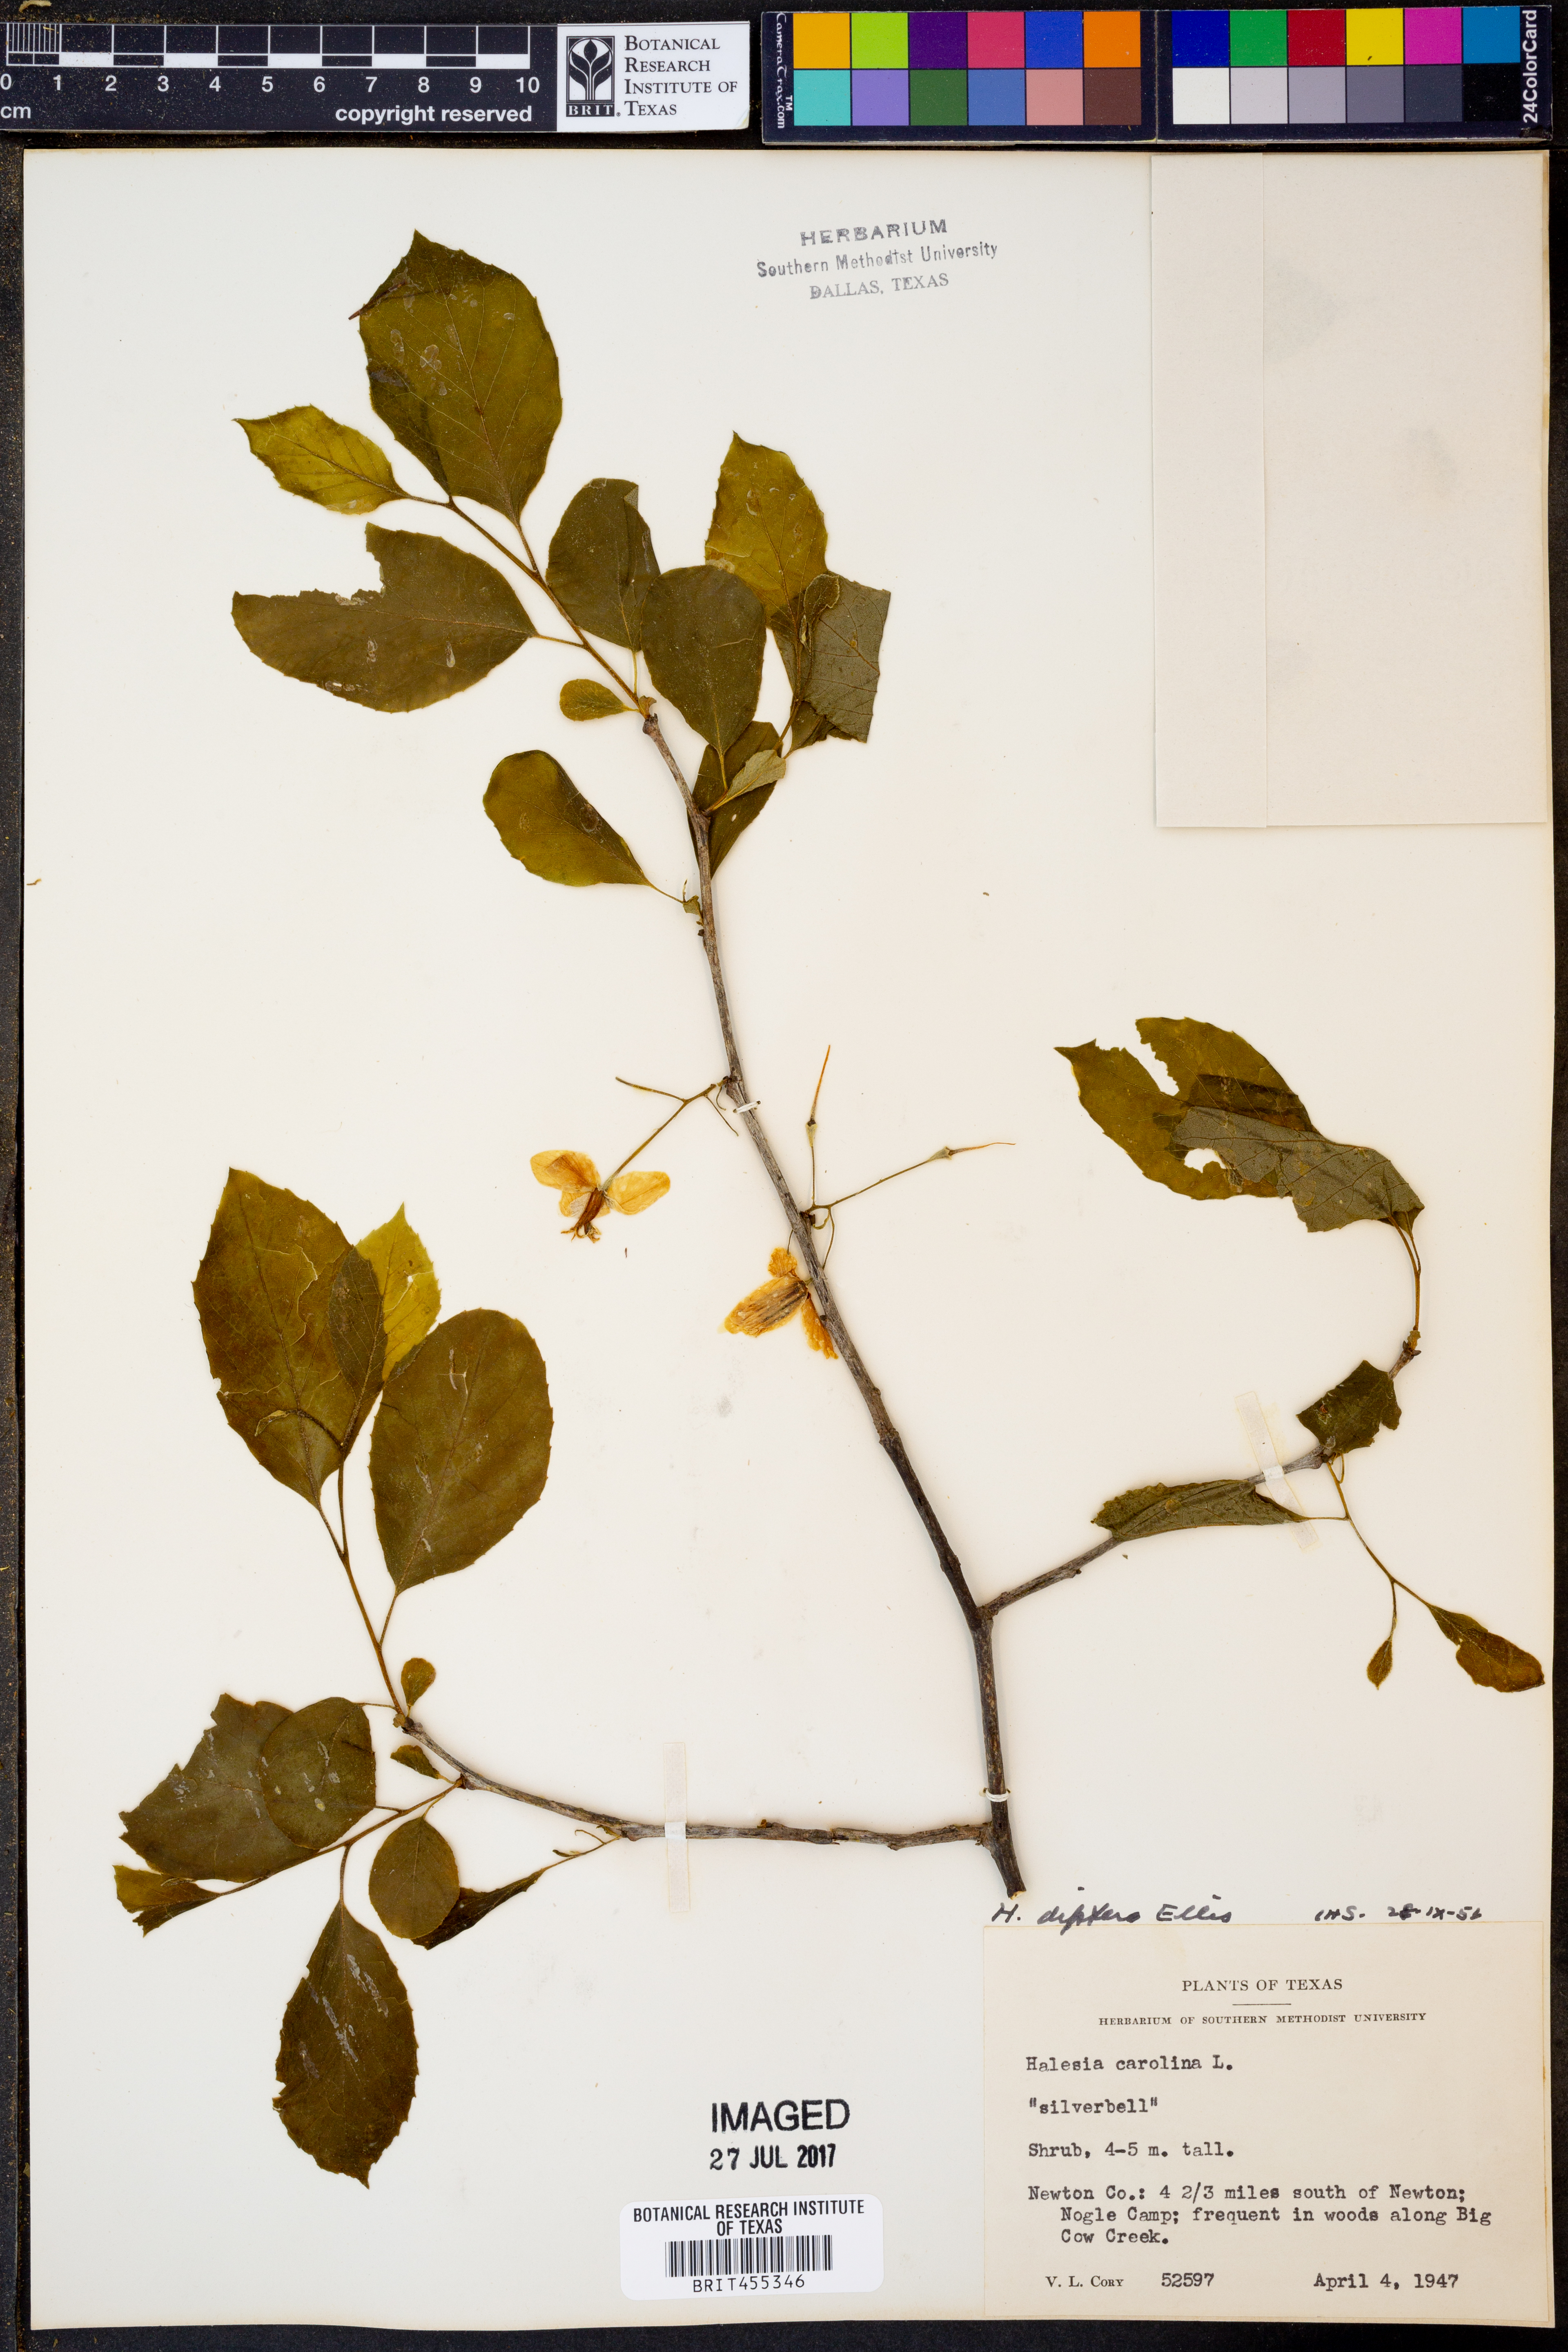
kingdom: Plantae
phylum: Tracheophyta
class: Magnoliopsida
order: Ericales
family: Styracaceae
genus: Halesia
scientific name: Halesia diptera
